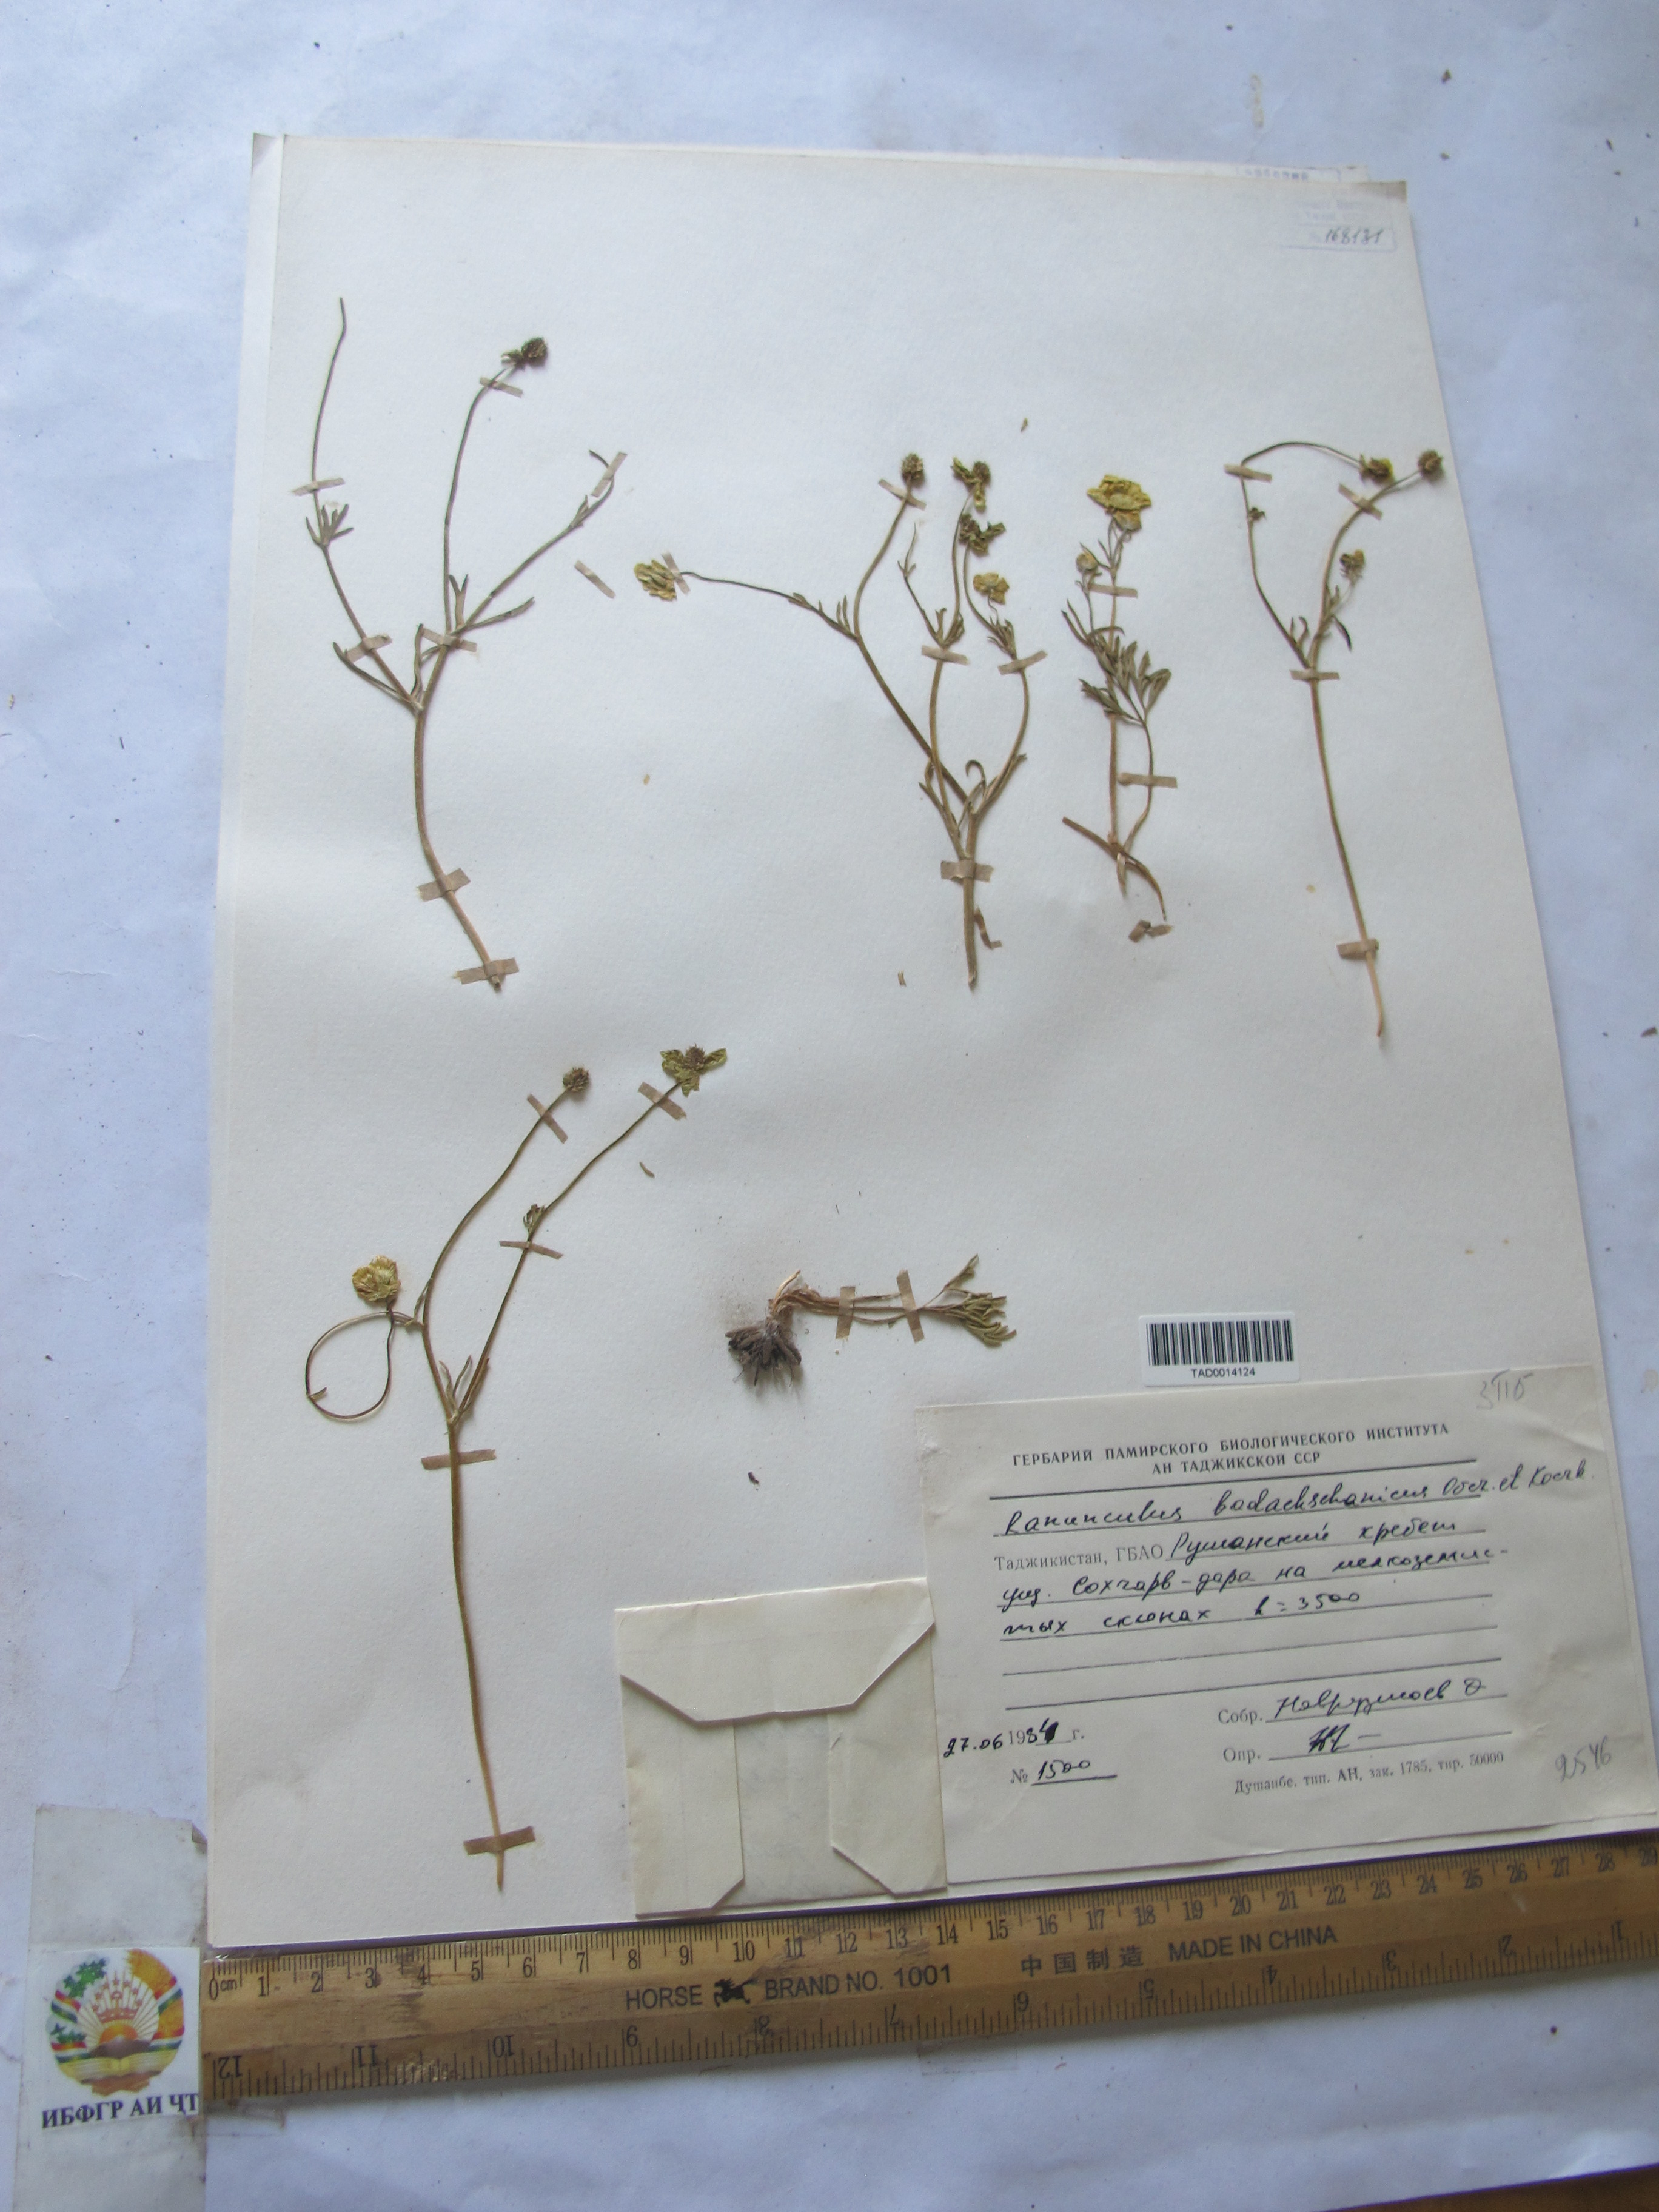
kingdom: Plantae
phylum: Tracheophyta
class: Magnoliopsida
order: Ranunculales
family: Ranunculaceae
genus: Ranunculus
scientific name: Ranunculus badachschanicus
